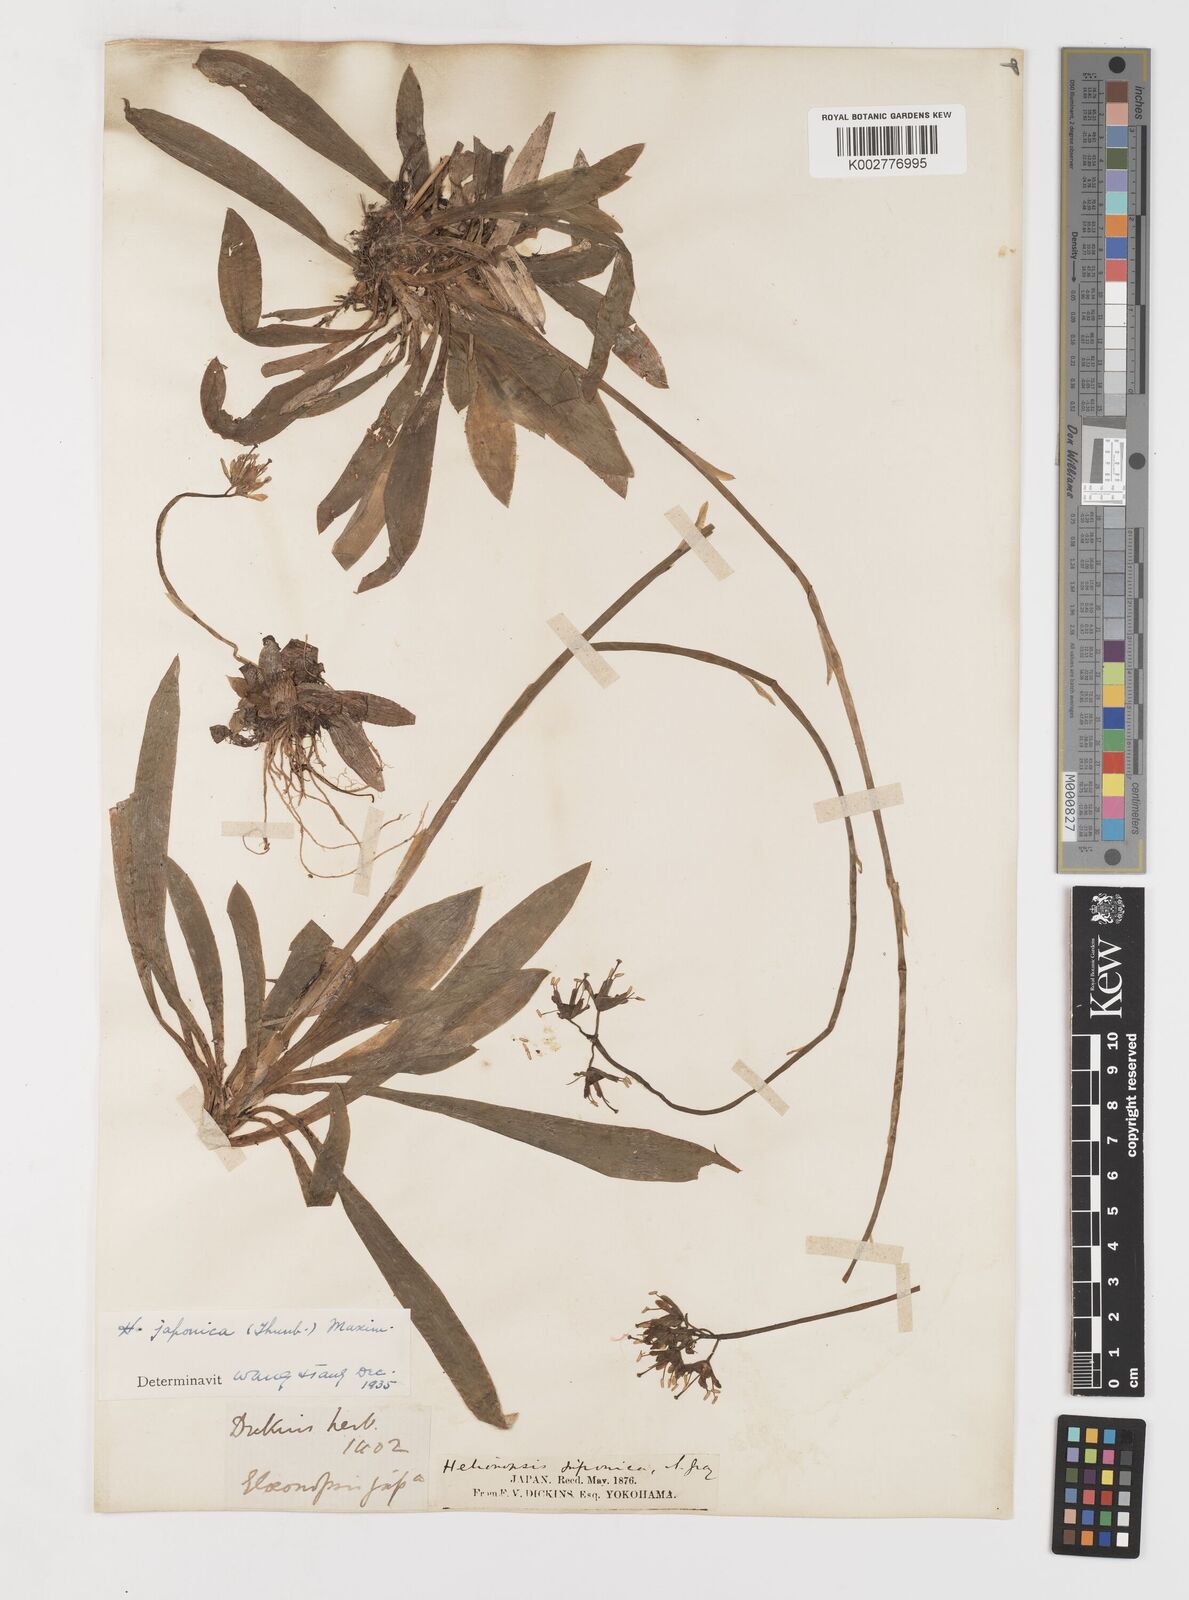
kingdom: Plantae
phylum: Tracheophyta
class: Liliopsida
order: Liliales
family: Melanthiaceae
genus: Helonias
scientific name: Helonias orientalis
